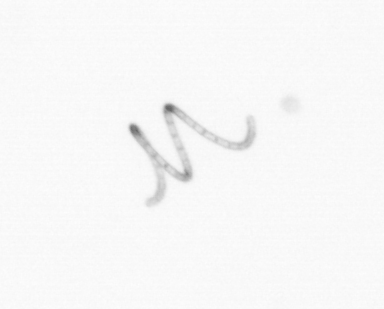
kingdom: Chromista
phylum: Ochrophyta
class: Bacillariophyceae
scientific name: Bacillariophyceae
